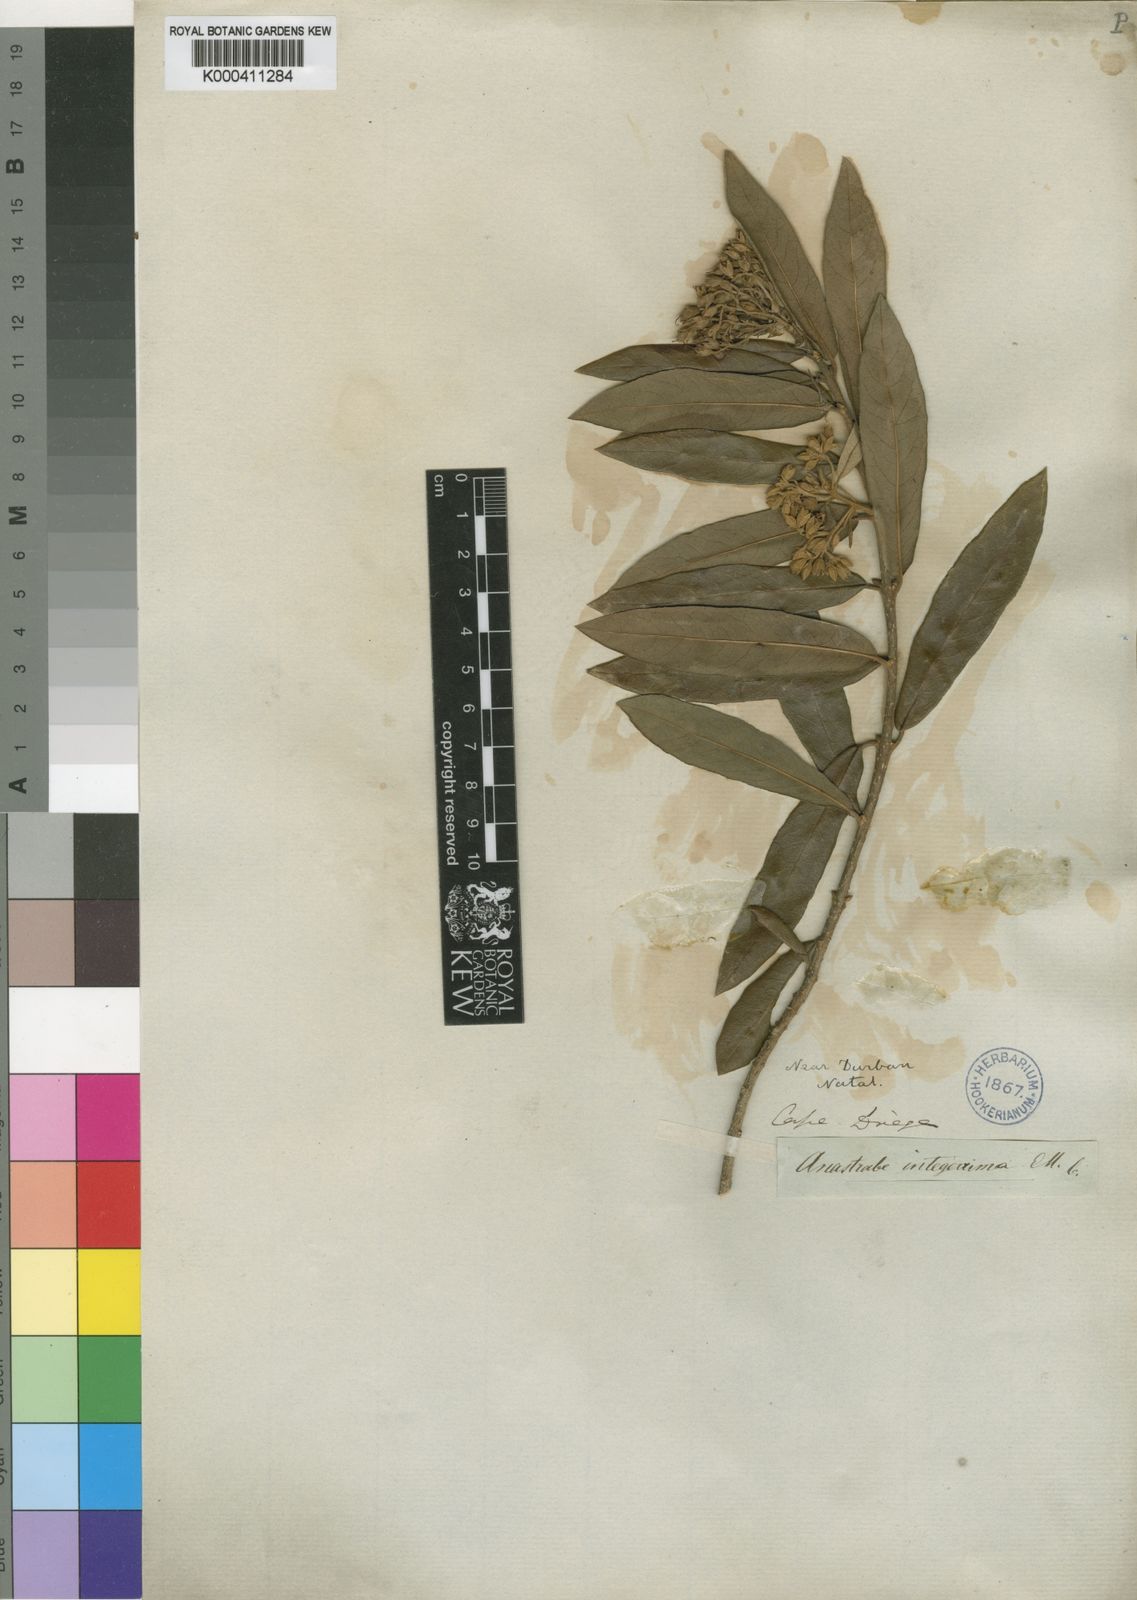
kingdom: Plantae
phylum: Tracheophyta
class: Magnoliopsida
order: Lamiales
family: Stilbaceae
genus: Anastrabe
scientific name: Anastrabe integerrima
